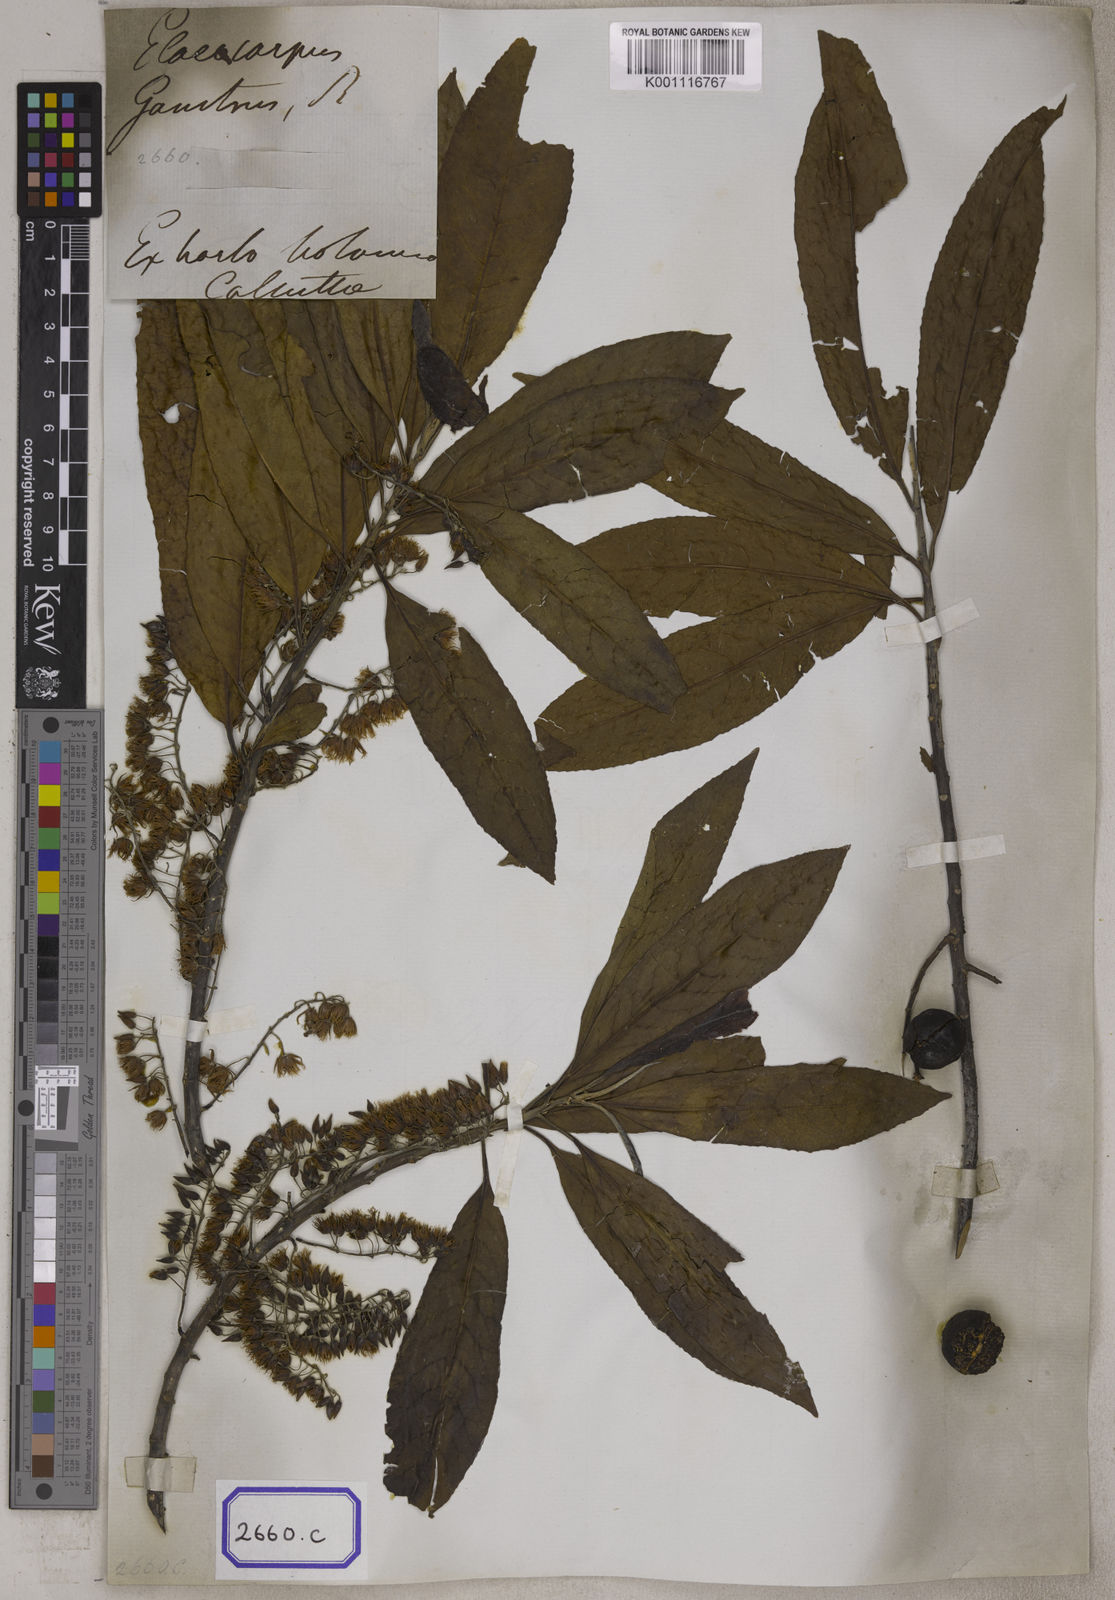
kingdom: Plantae
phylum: Tracheophyta
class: Magnoliopsida
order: Oxalidales
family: Elaeocarpaceae
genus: Elaeocarpus
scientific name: Elaeocarpus
